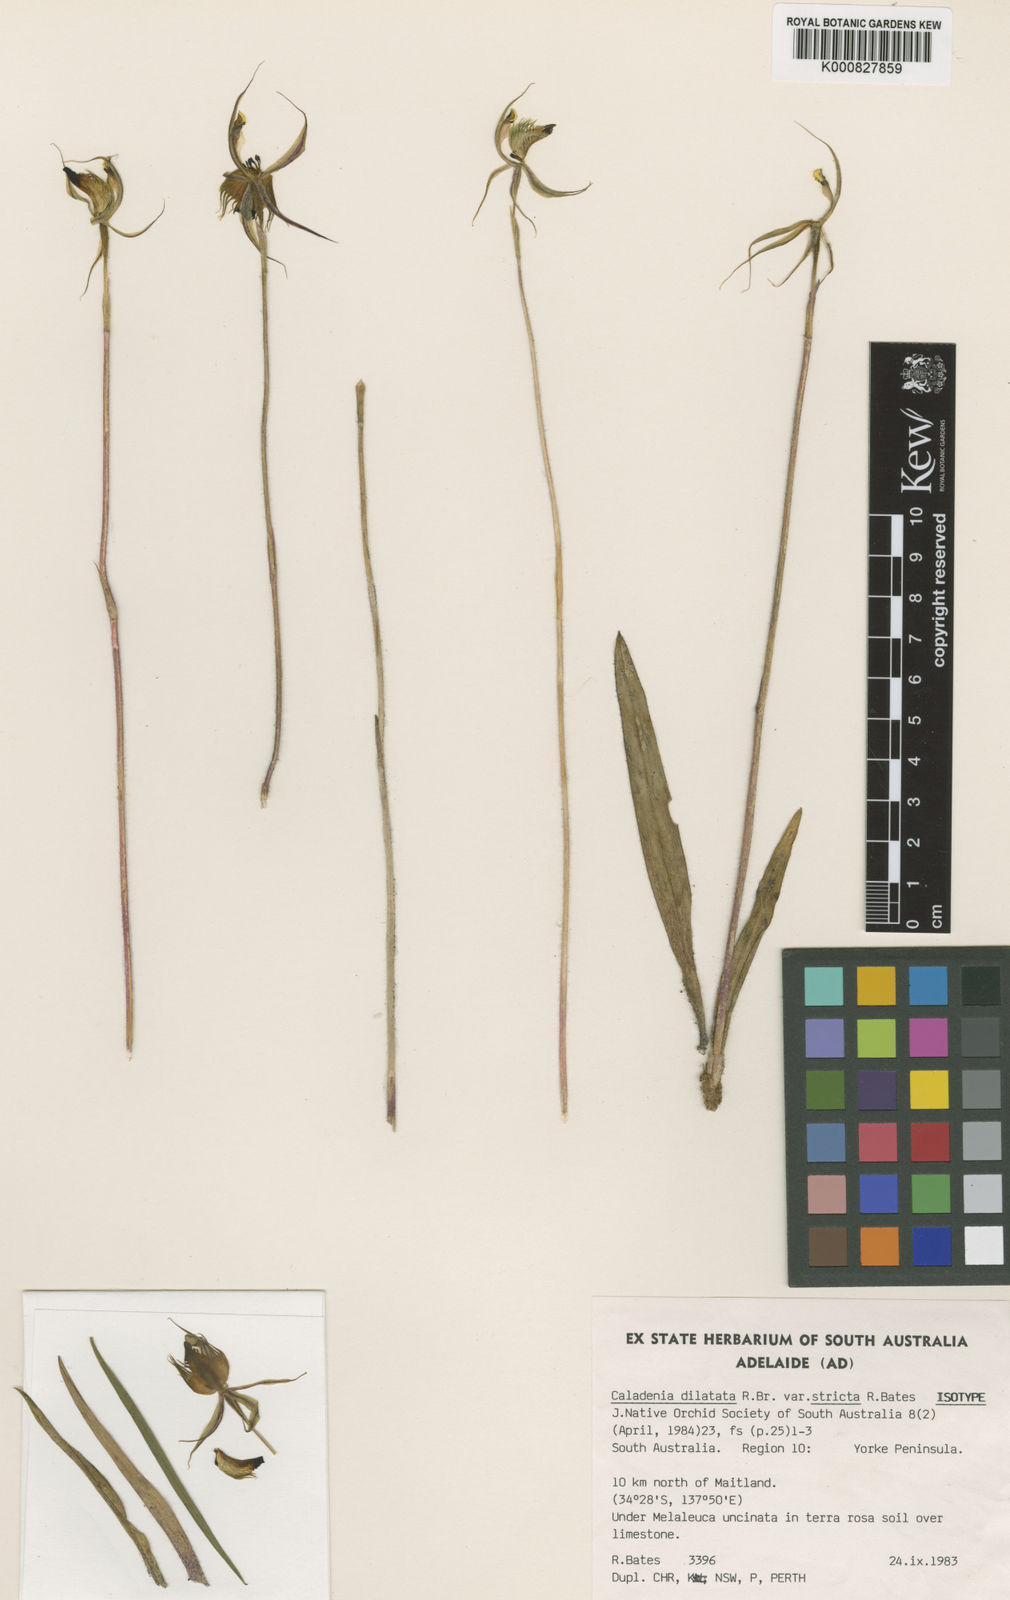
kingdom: Plantae
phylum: Tracheophyta
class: Liliopsida
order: Asparagales
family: Orchidaceae
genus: Caladenia
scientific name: Caladenia stricta
